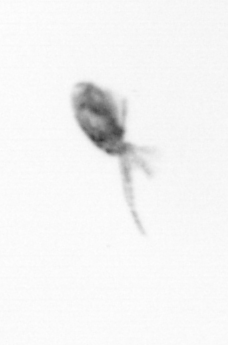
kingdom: Animalia
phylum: Arthropoda
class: Copepoda
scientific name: Copepoda
